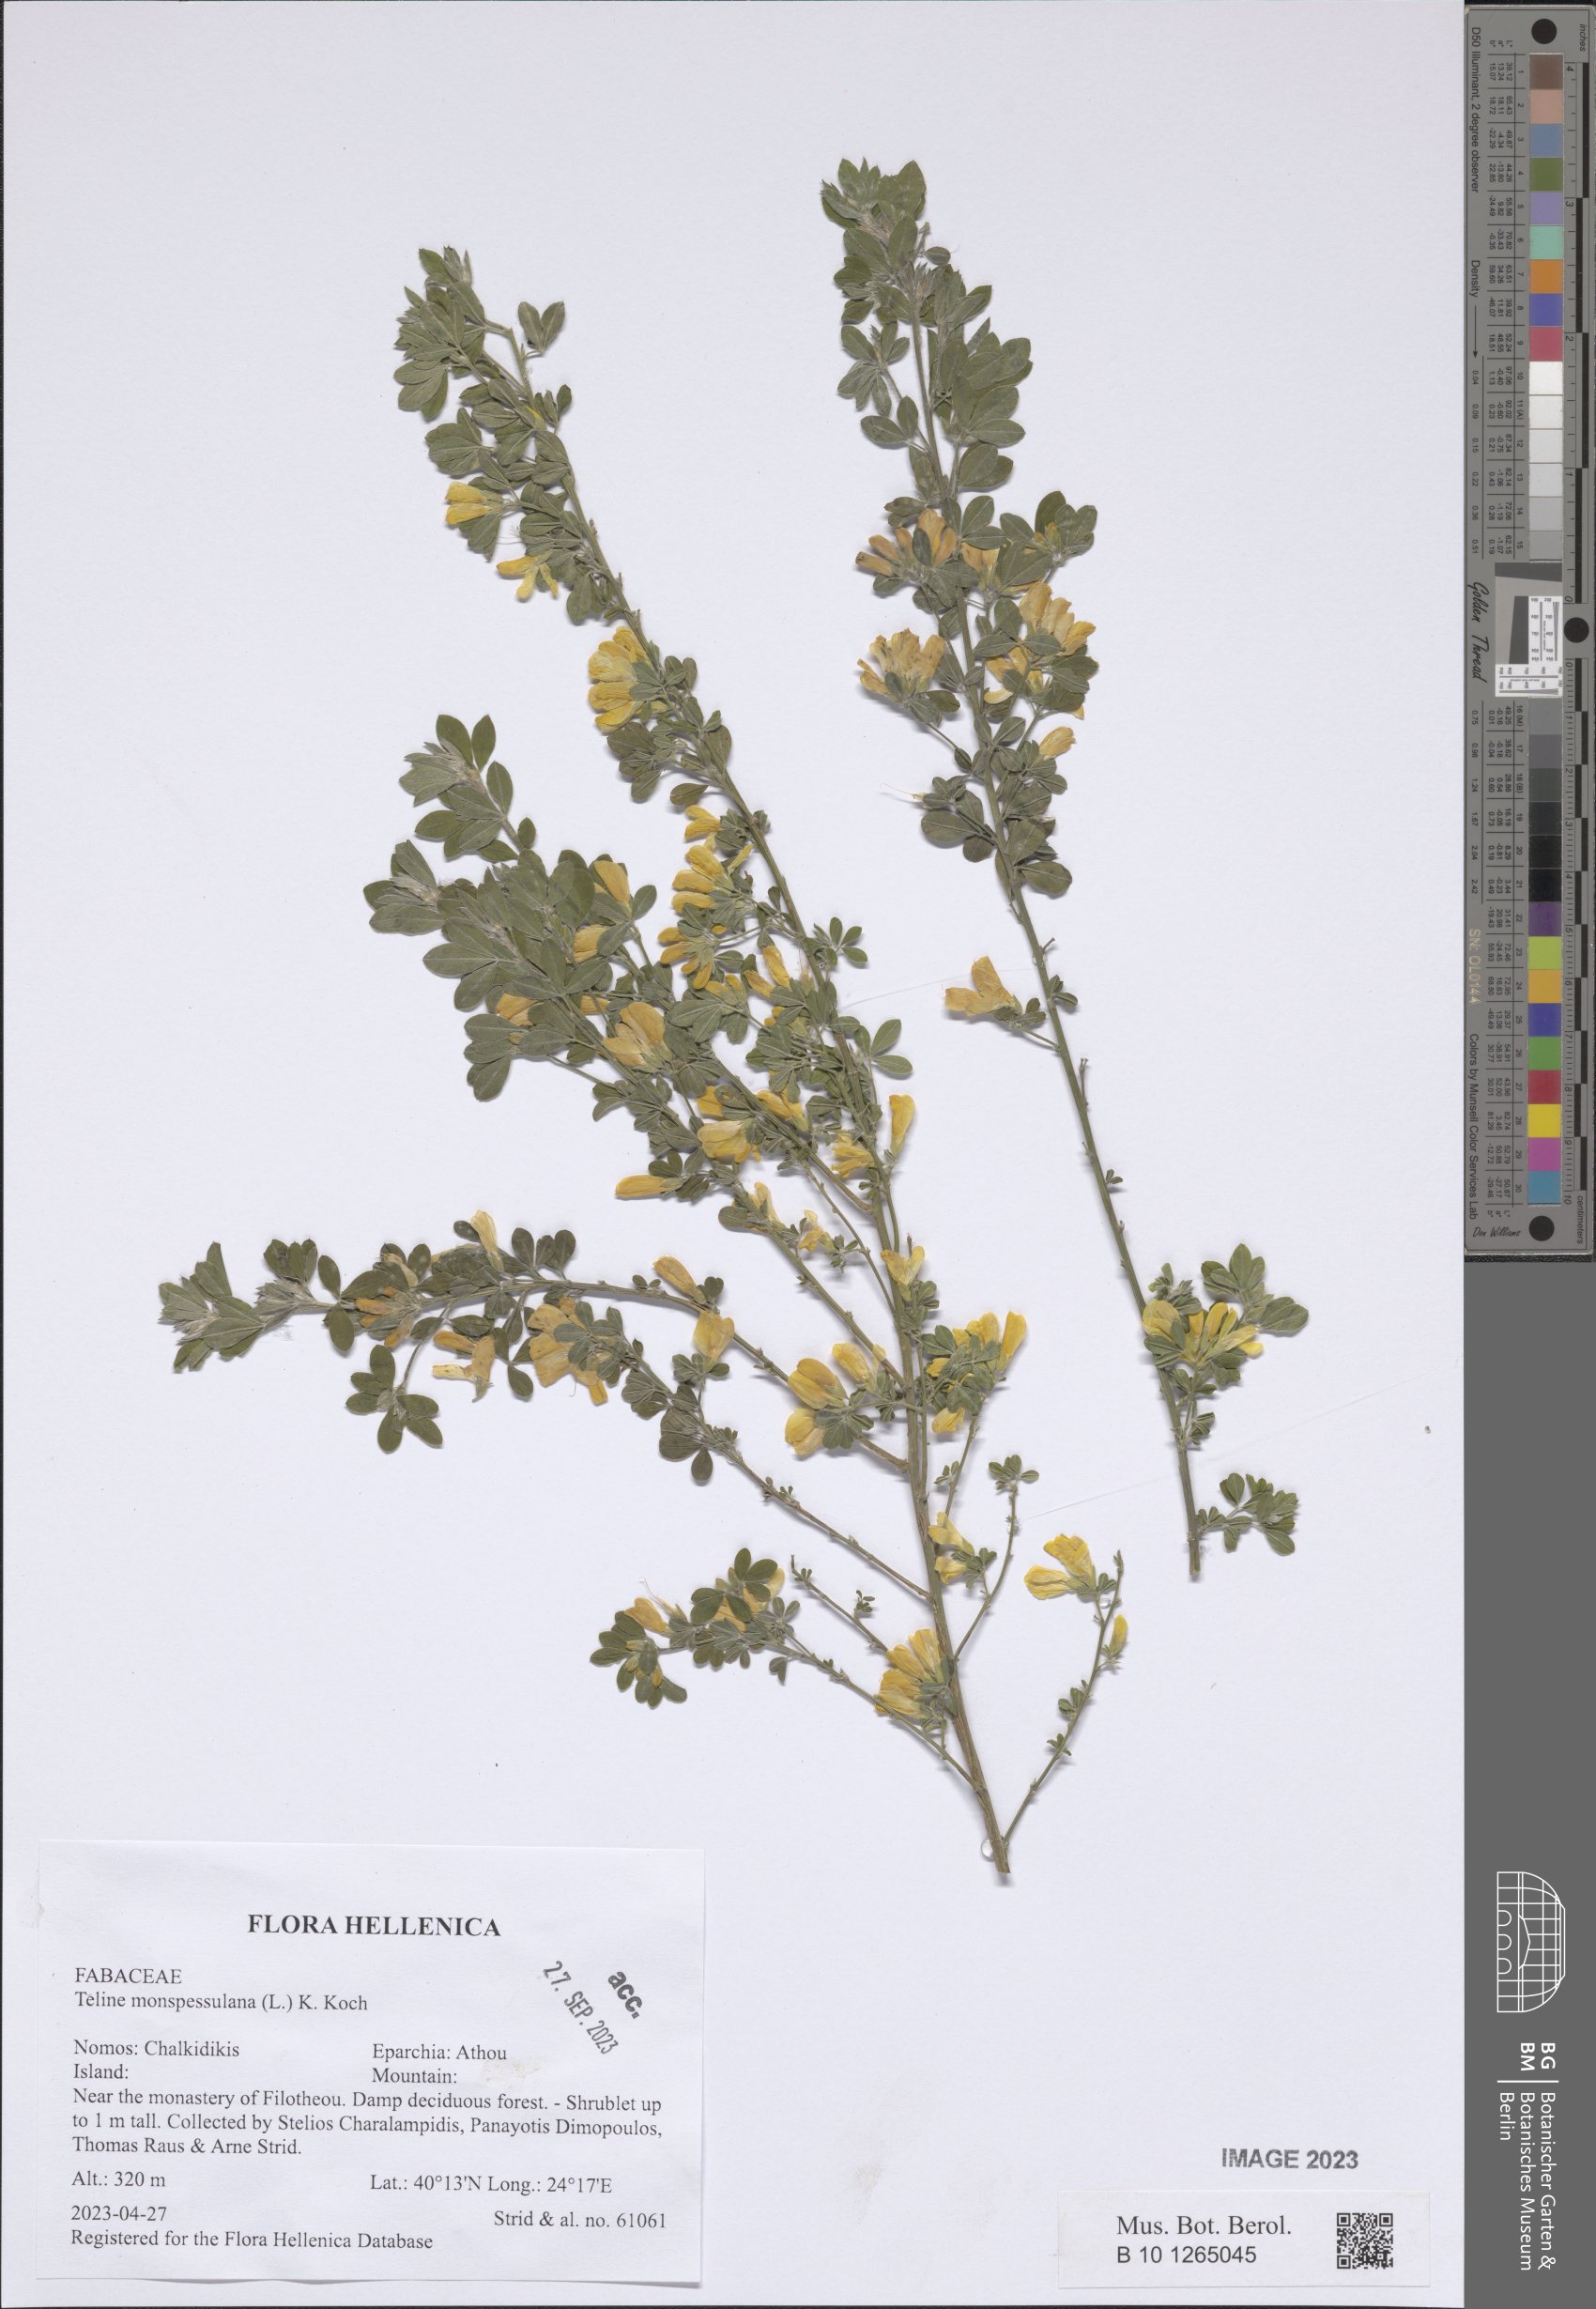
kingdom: Plantae
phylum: Tracheophyta
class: Magnoliopsida
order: Fabales
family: Fabaceae
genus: Genista
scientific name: Genista monspessulana
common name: Montpellier broom
